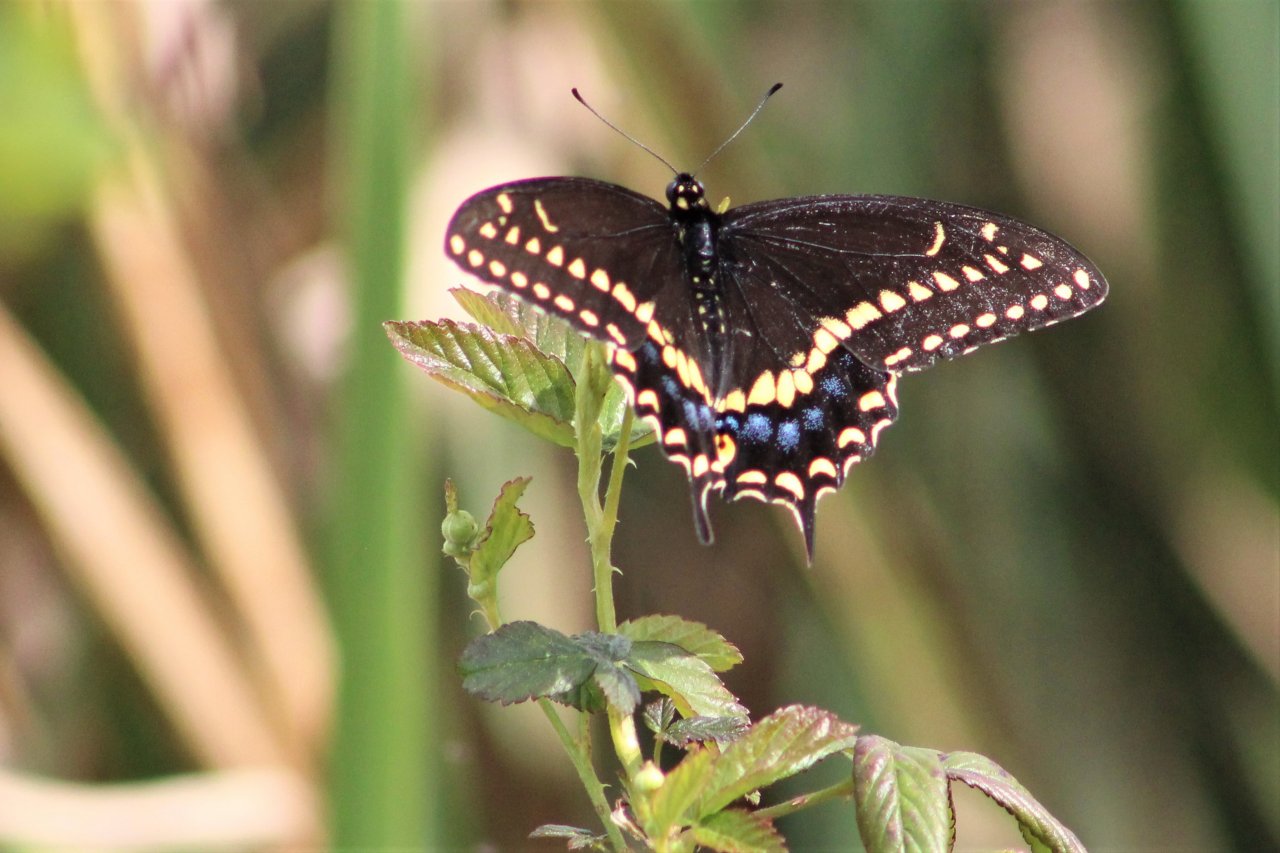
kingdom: Animalia
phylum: Arthropoda
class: Insecta
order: Lepidoptera
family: Papilionidae
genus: Papilio
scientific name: Papilio polyxenes
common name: Black Swallowtail
